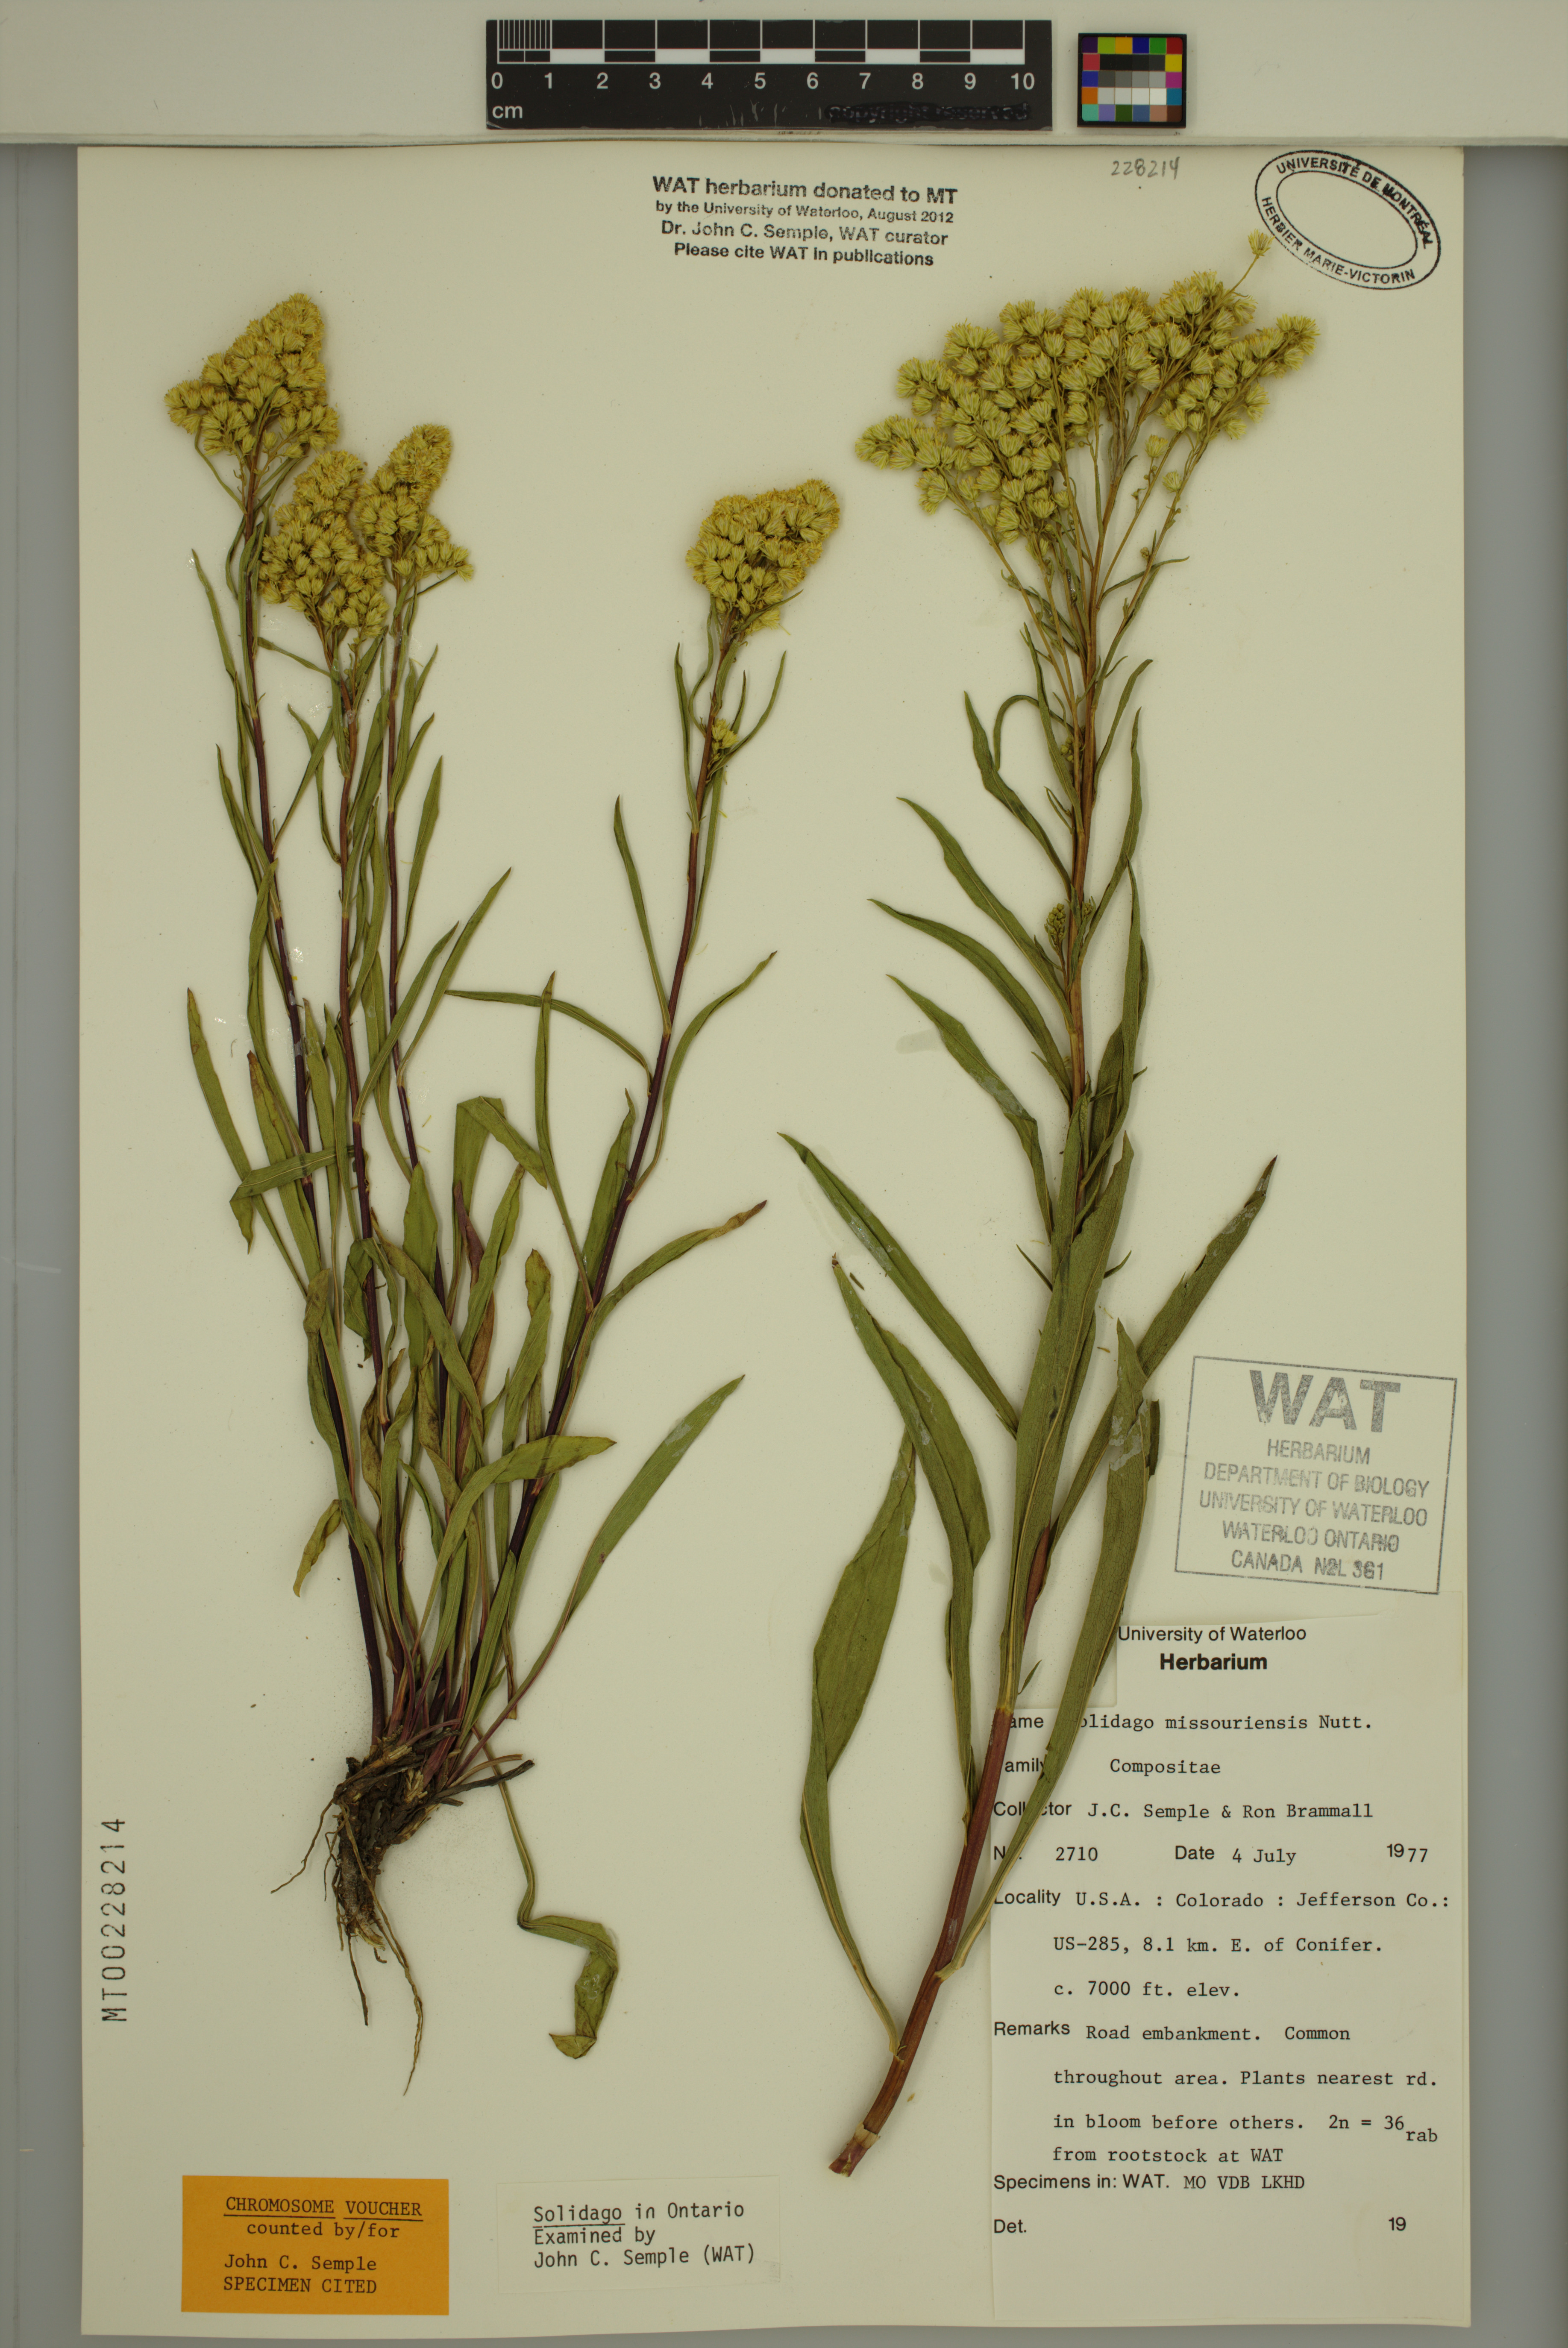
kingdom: Plantae
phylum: Tracheophyta
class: Magnoliopsida
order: Asterales
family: Asteraceae
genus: Solidago
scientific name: Solidago missouriensis
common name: Prairie goldenrod
